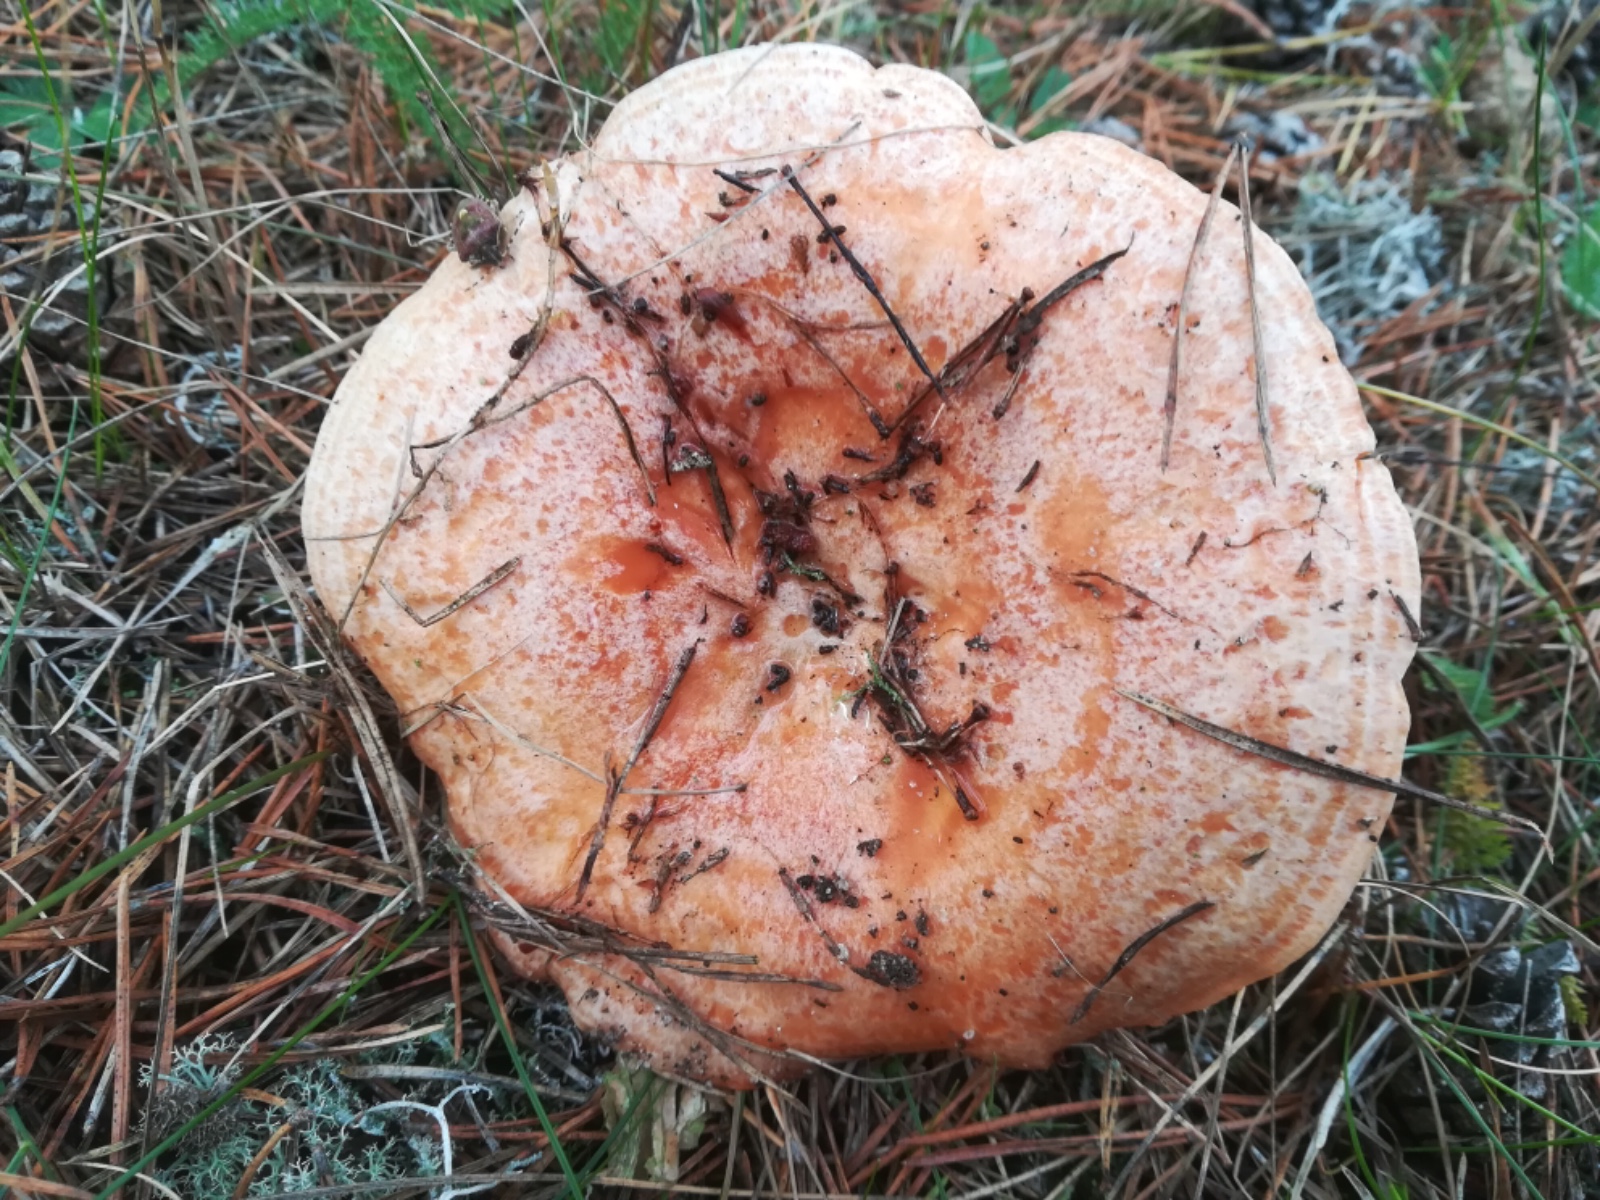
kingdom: Fungi
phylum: Basidiomycota
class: Agaricomycetes
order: Russulales
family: Russulaceae
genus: Lactarius
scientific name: Lactarius deliciosus
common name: velsmagende mælkehat
